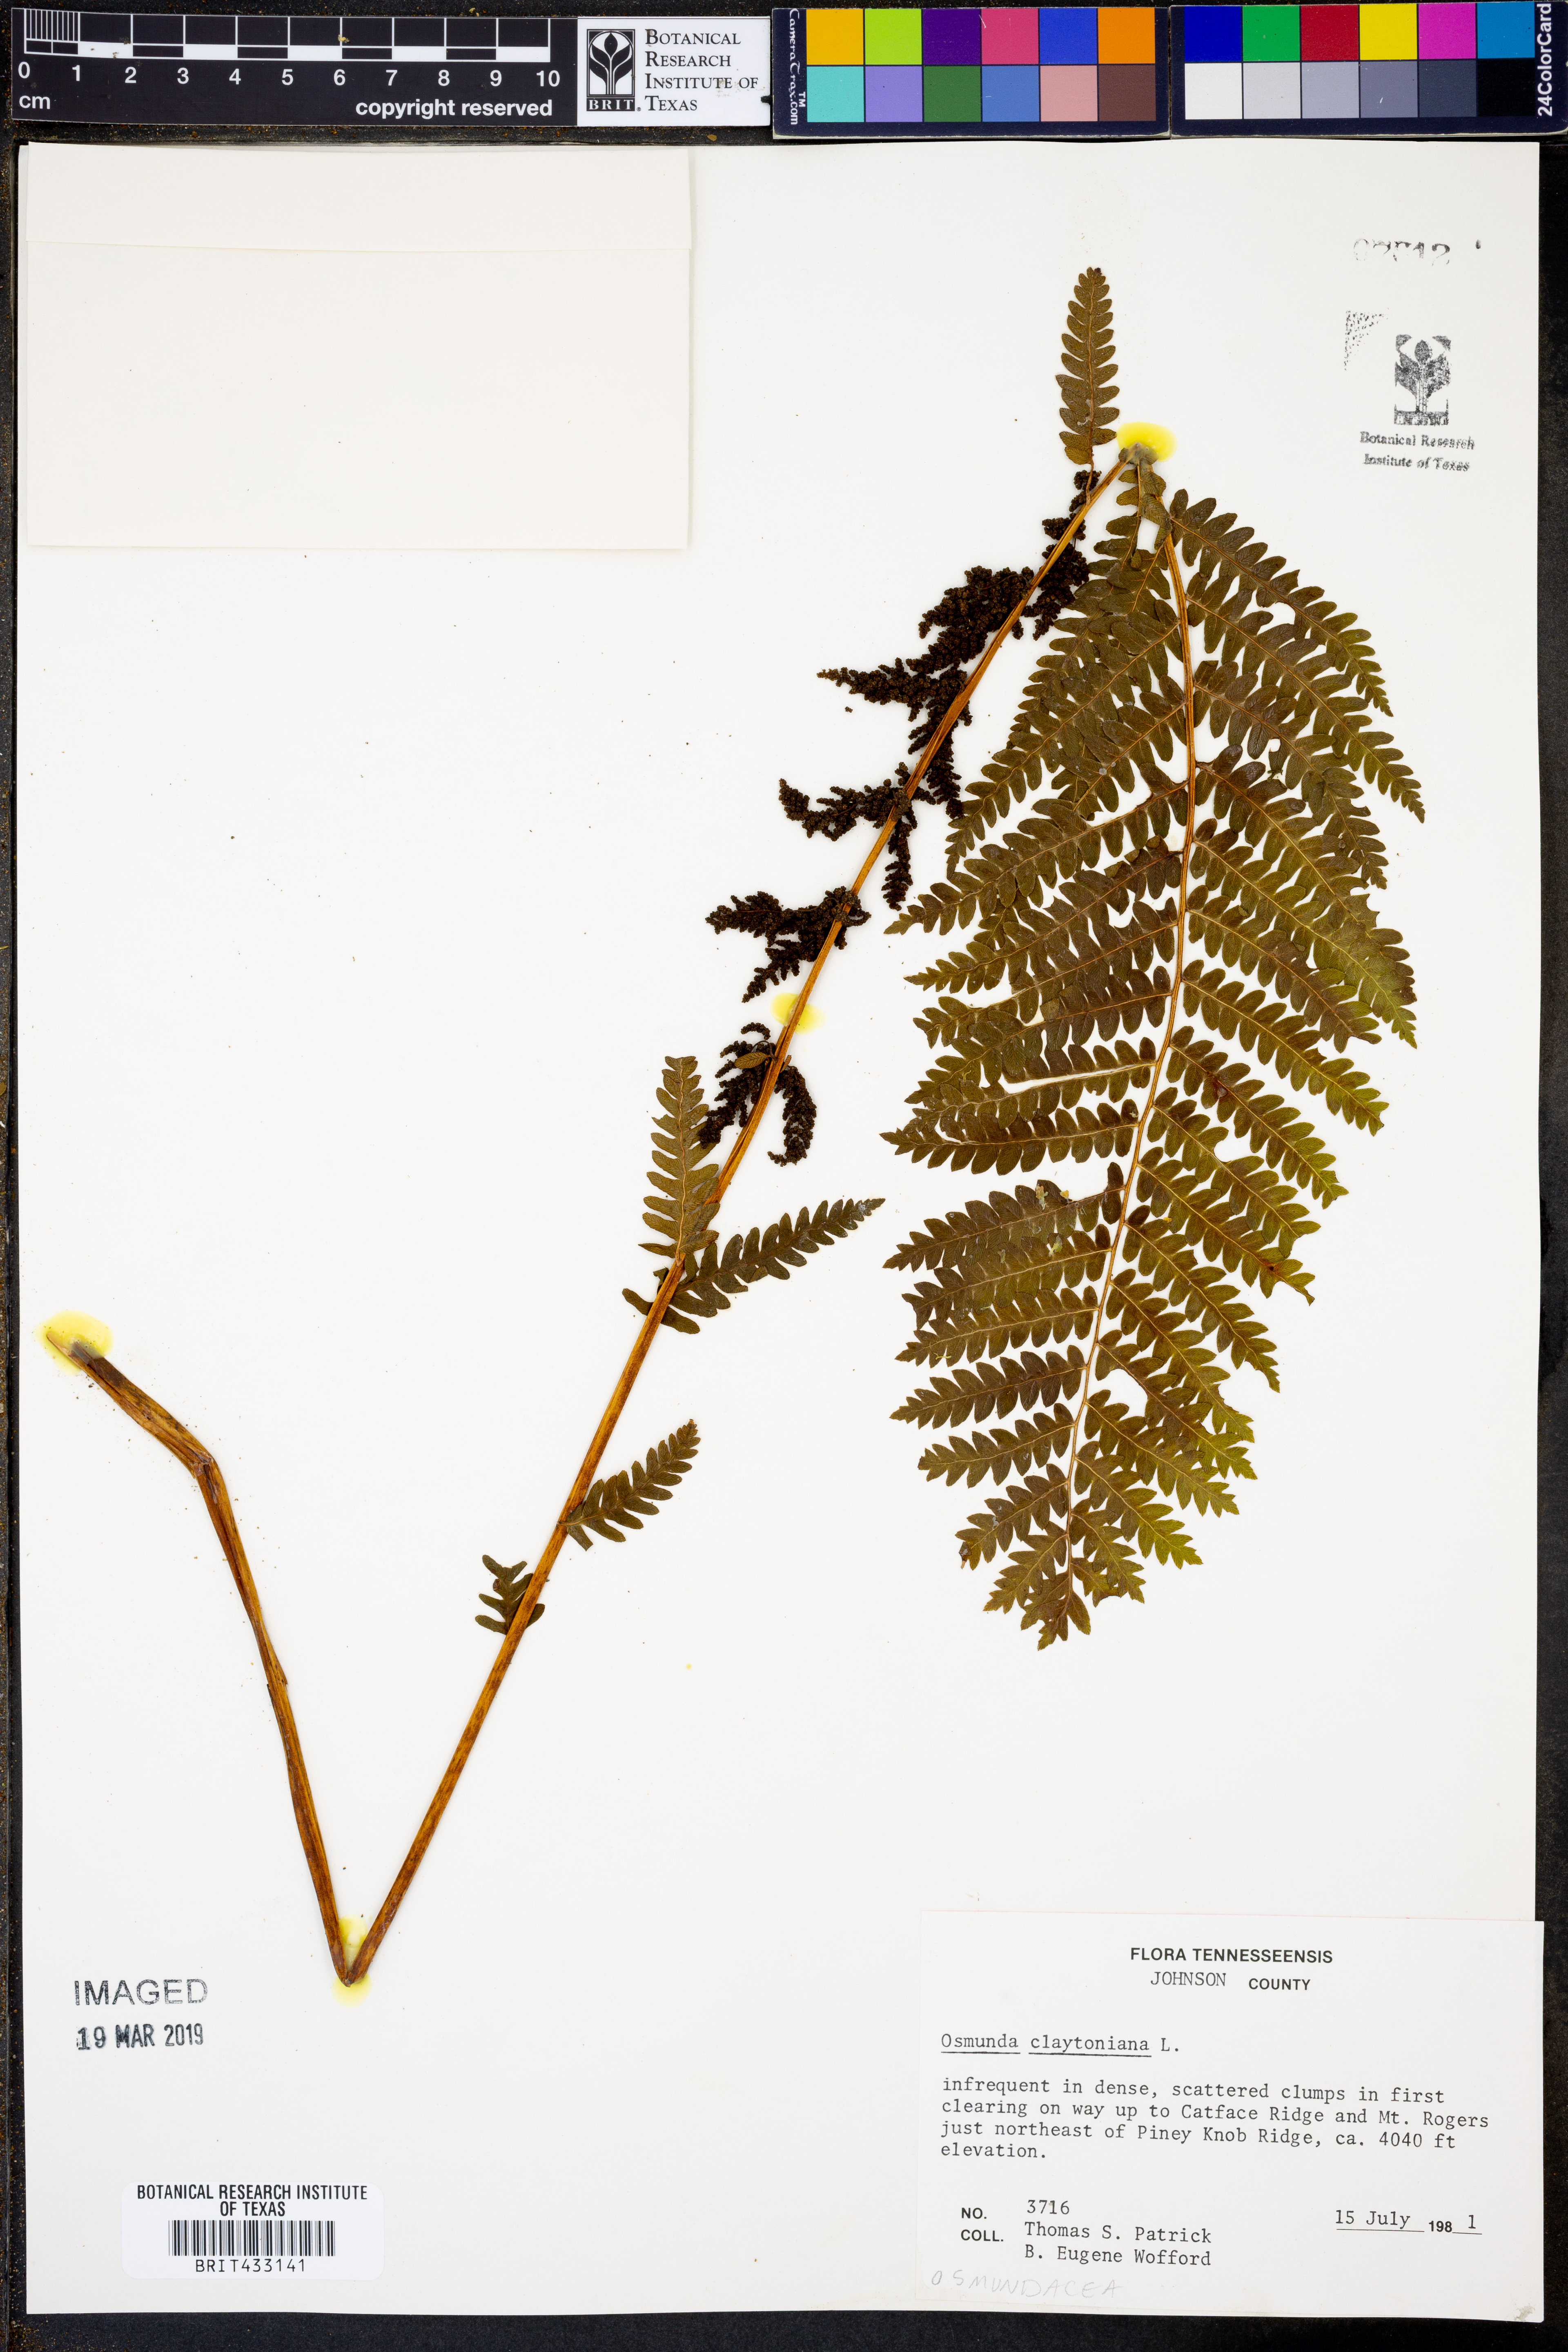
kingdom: Plantae
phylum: Tracheophyta
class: Polypodiopsida
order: Osmundales
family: Osmundaceae
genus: Claytosmunda
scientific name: Claytosmunda claytoniana
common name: Clayton's fern
